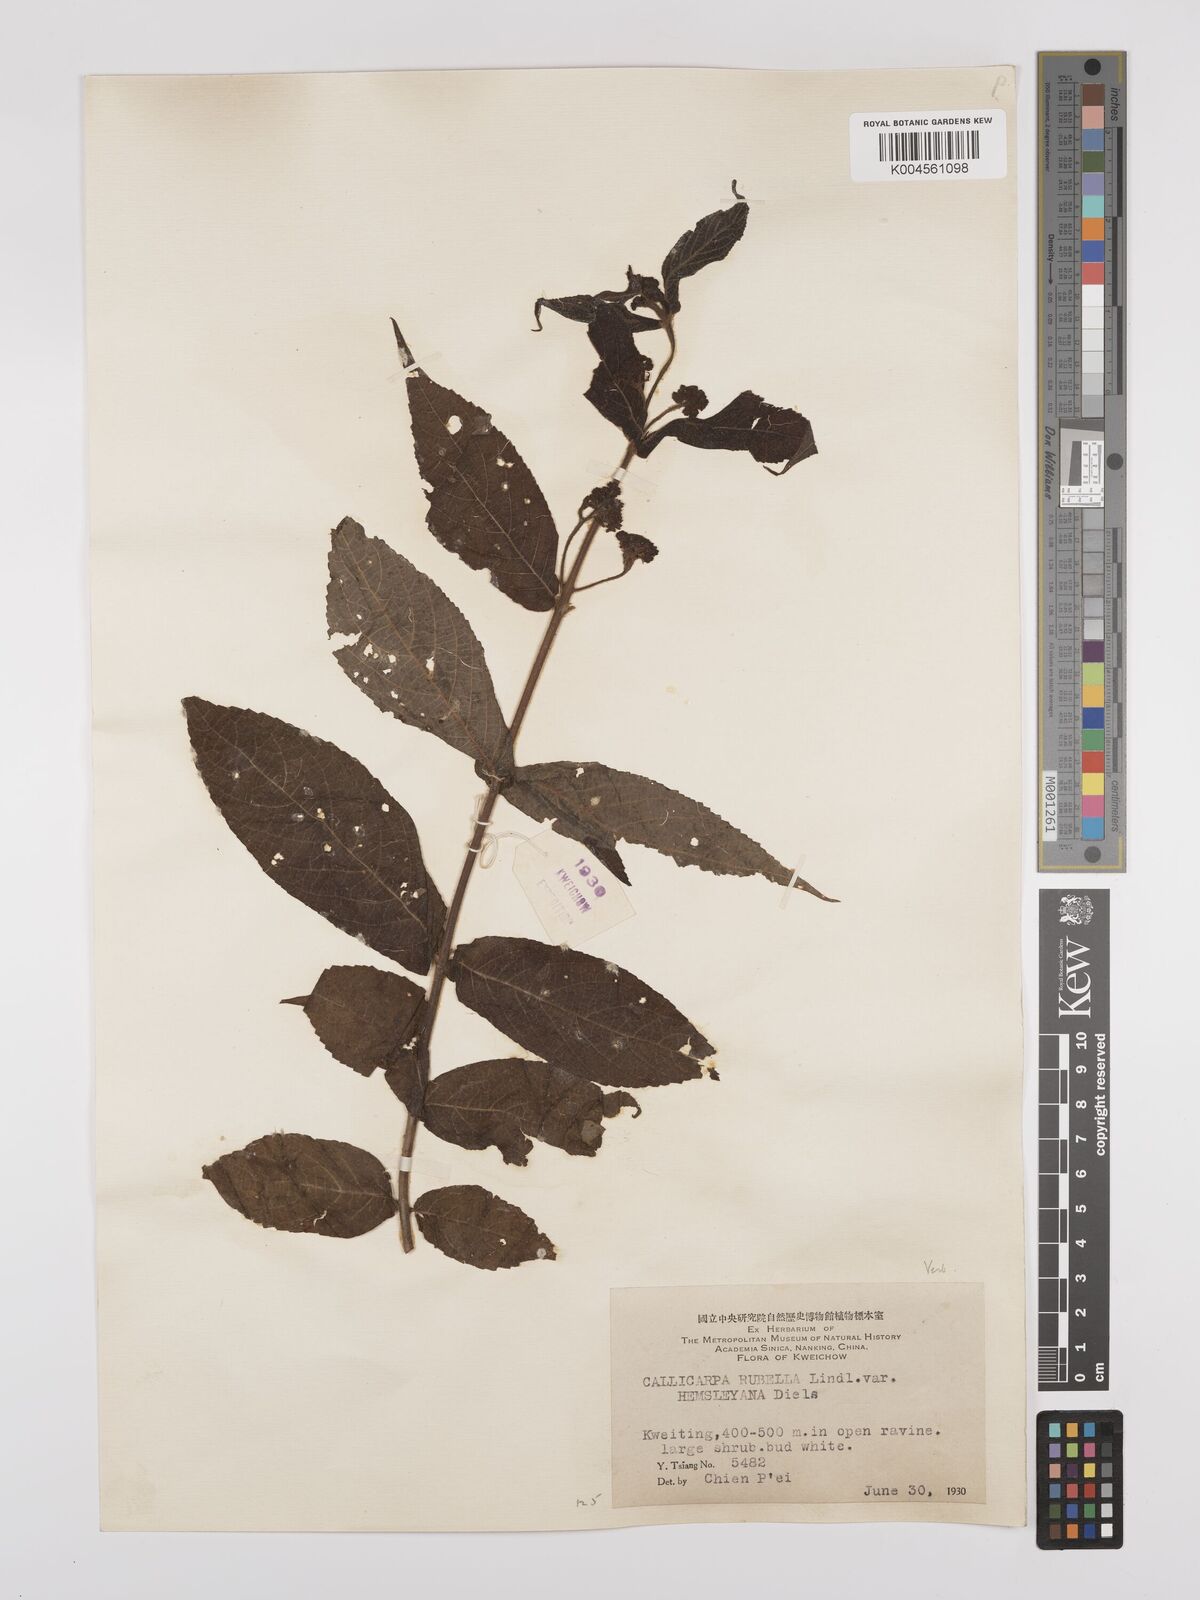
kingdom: Plantae
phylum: Tracheophyta
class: Magnoliopsida
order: Lamiales
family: Lamiaceae
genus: Callicarpa
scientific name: Callicarpa rubella
